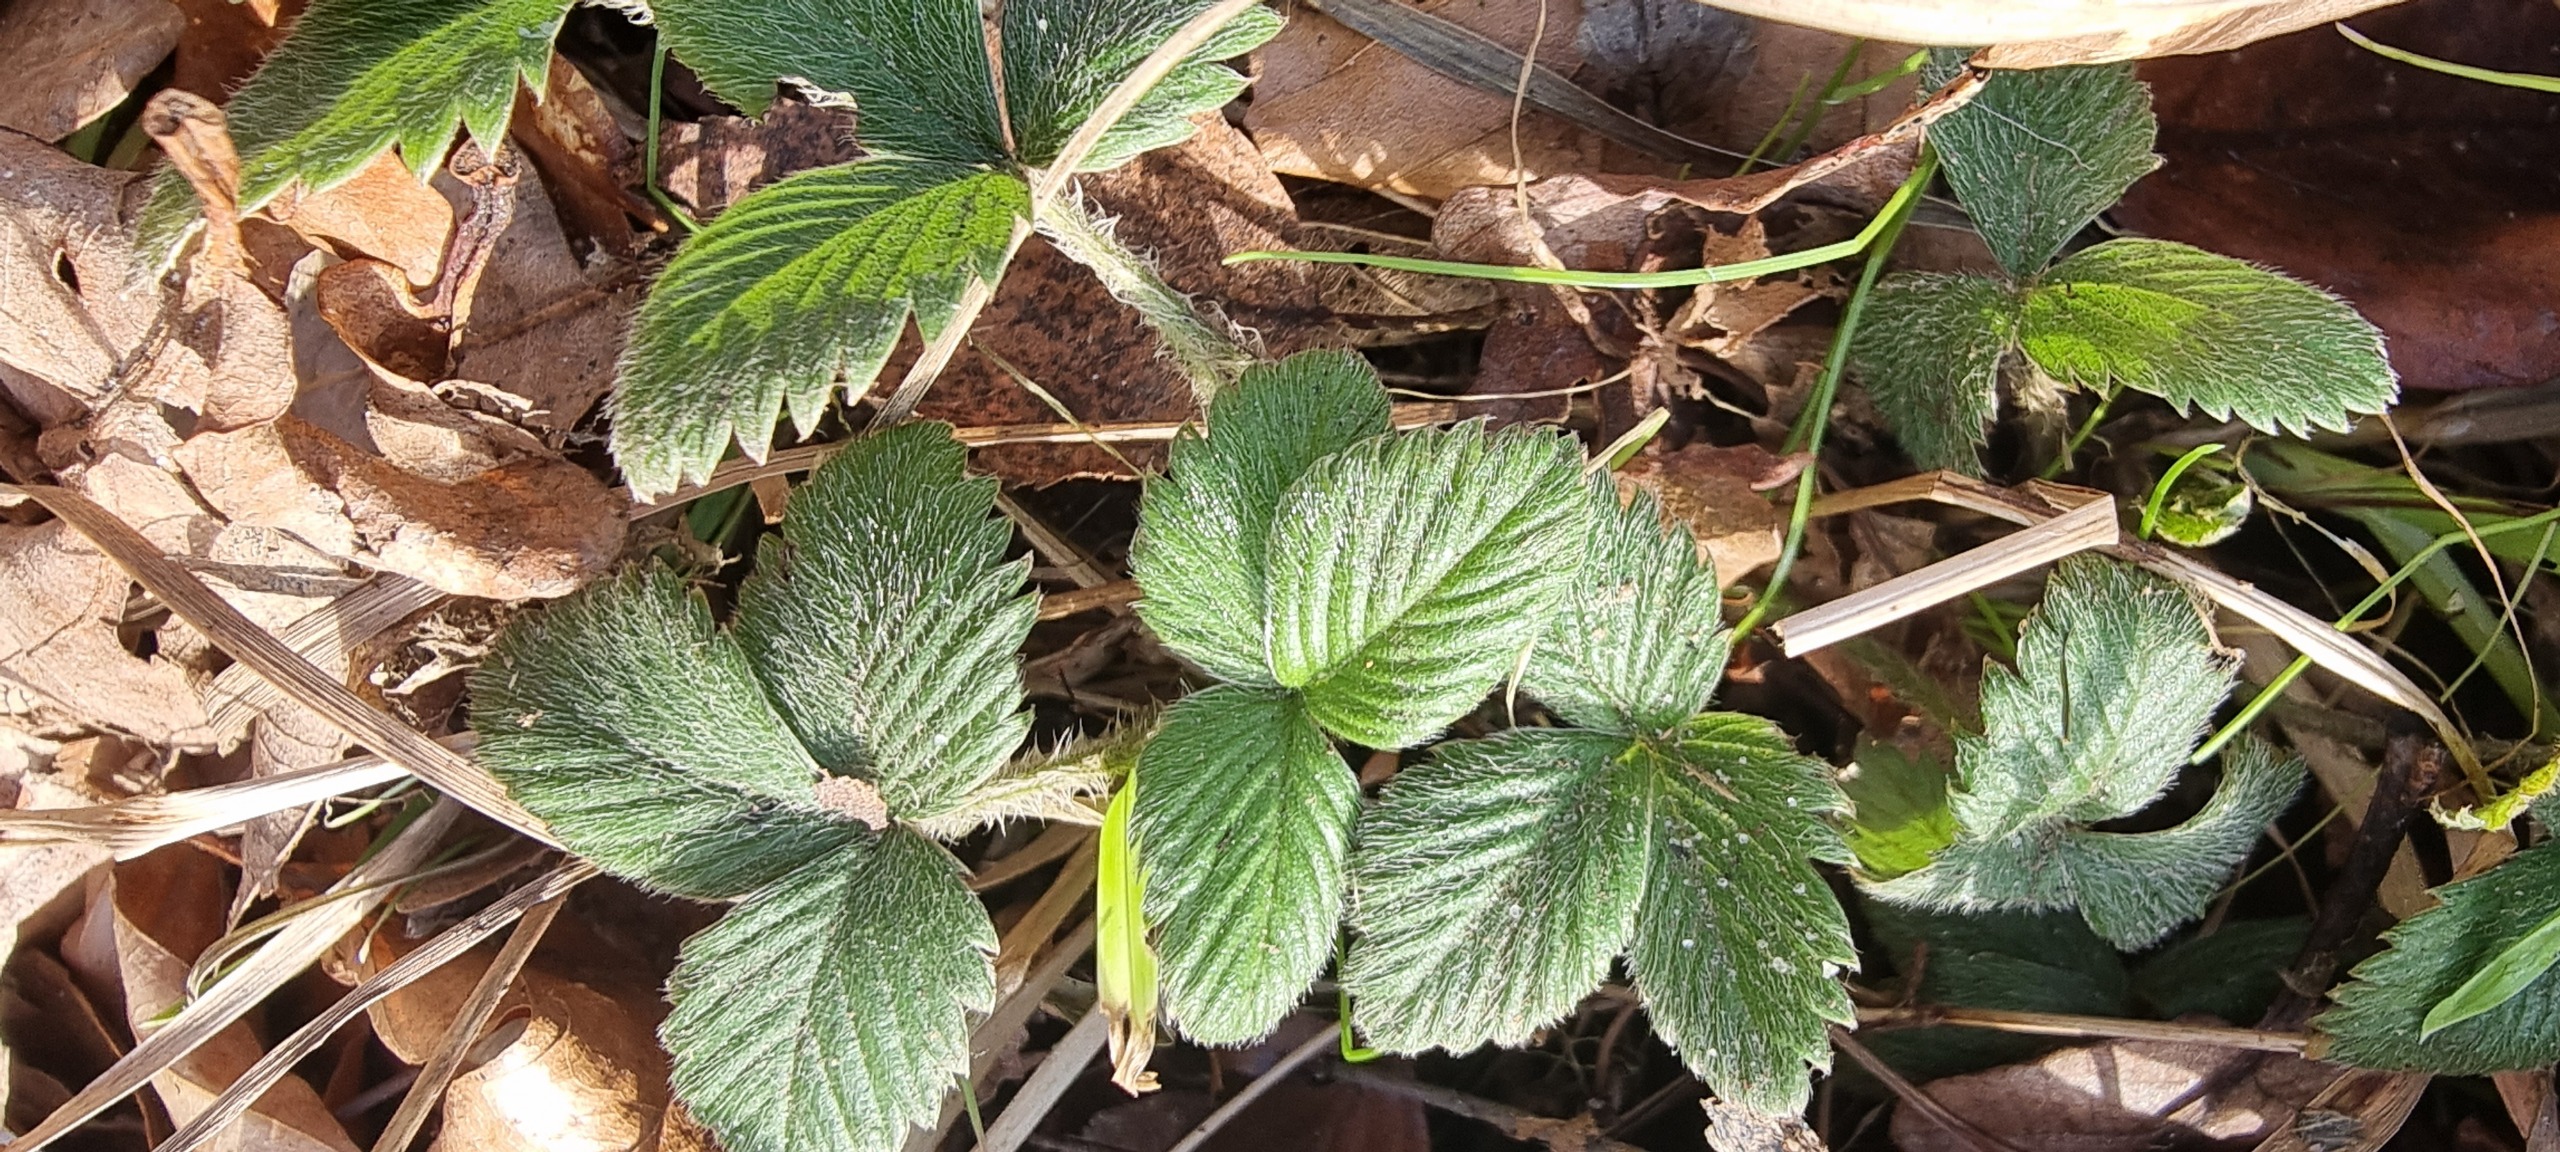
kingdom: Plantae
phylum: Tracheophyta
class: Magnoliopsida
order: Rosales
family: Rosaceae
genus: Fragaria
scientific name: Fragaria
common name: Jordbærslægten
